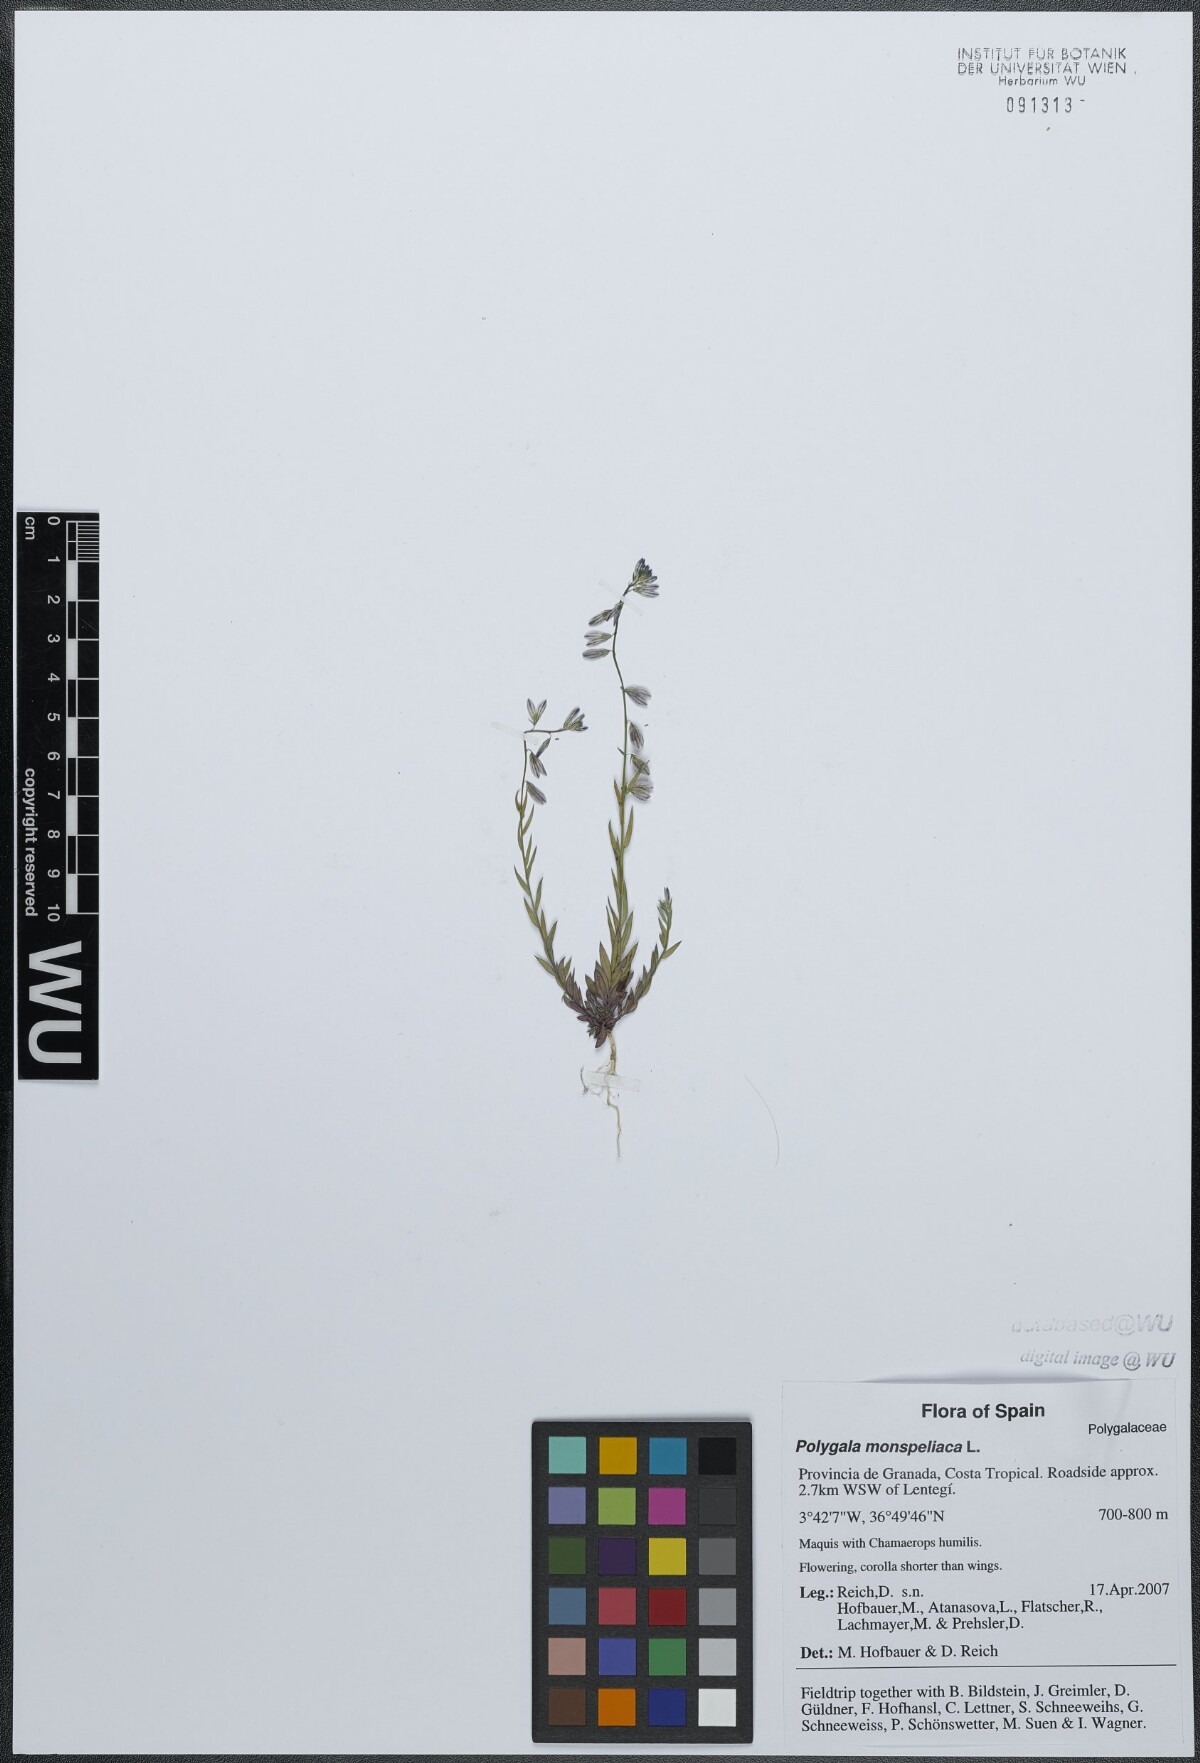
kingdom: Plantae
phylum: Tracheophyta
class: Magnoliopsida
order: Fabales
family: Polygalaceae
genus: Polygala
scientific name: Polygala monspeliaca
